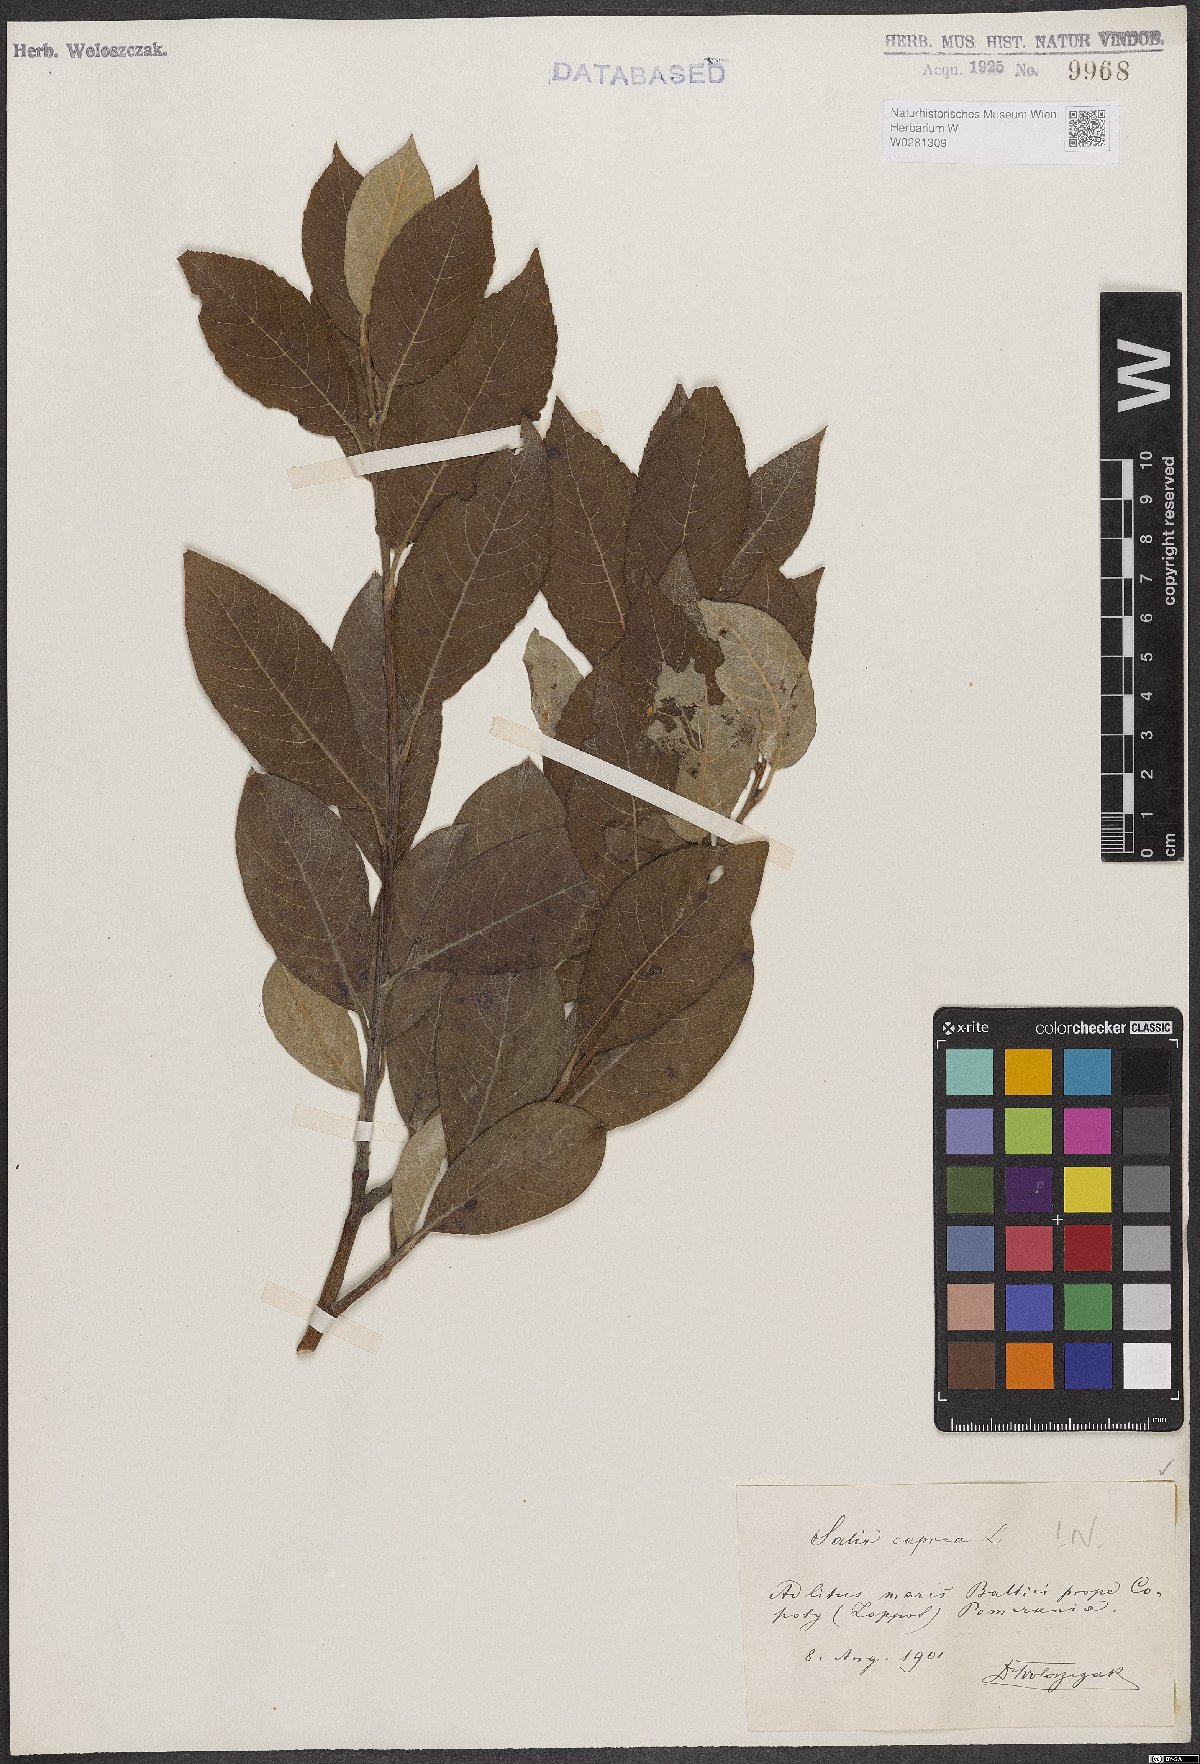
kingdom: Plantae
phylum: Tracheophyta
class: Magnoliopsida
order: Malpighiales
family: Salicaceae
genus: Salix
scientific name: Salix caprea
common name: Goat willow
